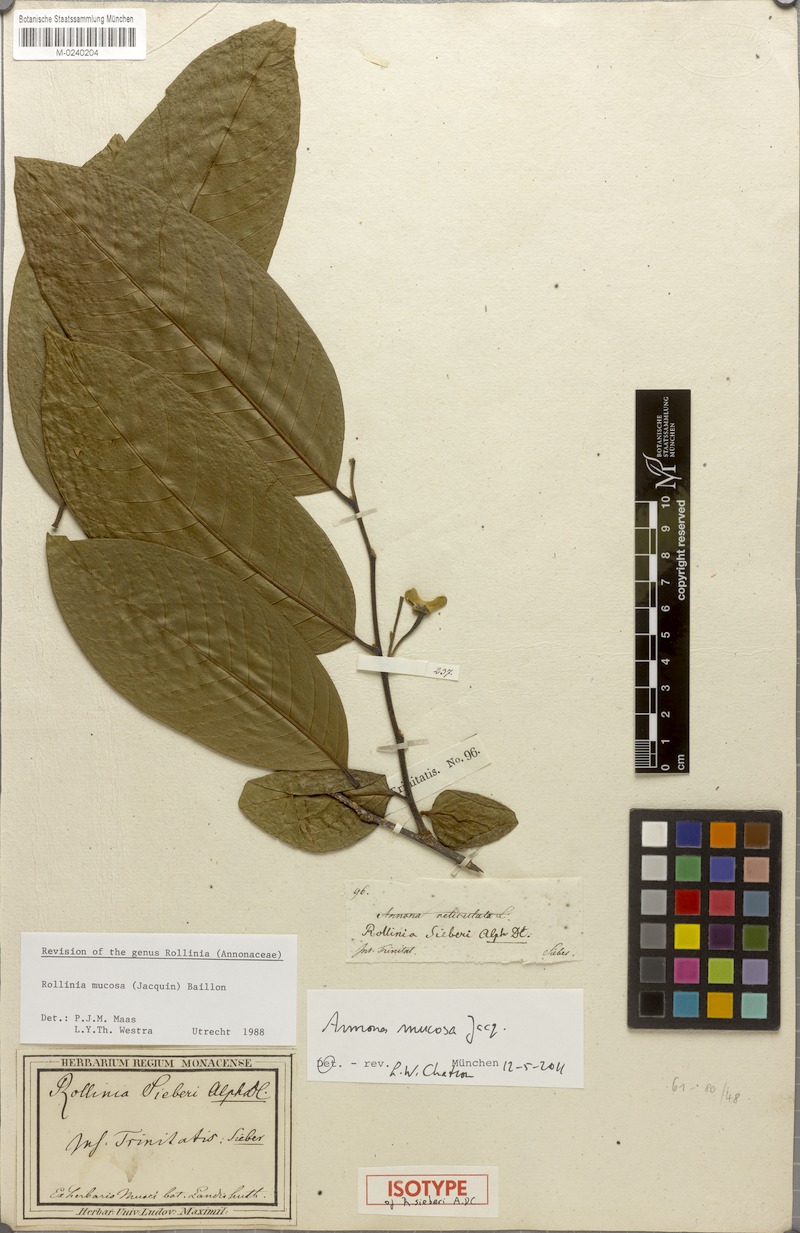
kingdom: Plantae
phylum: Tracheophyta
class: Magnoliopsida
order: Magnoliales
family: Annonaceae
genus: Annona
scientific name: Annona mucosa
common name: Sugar apple
